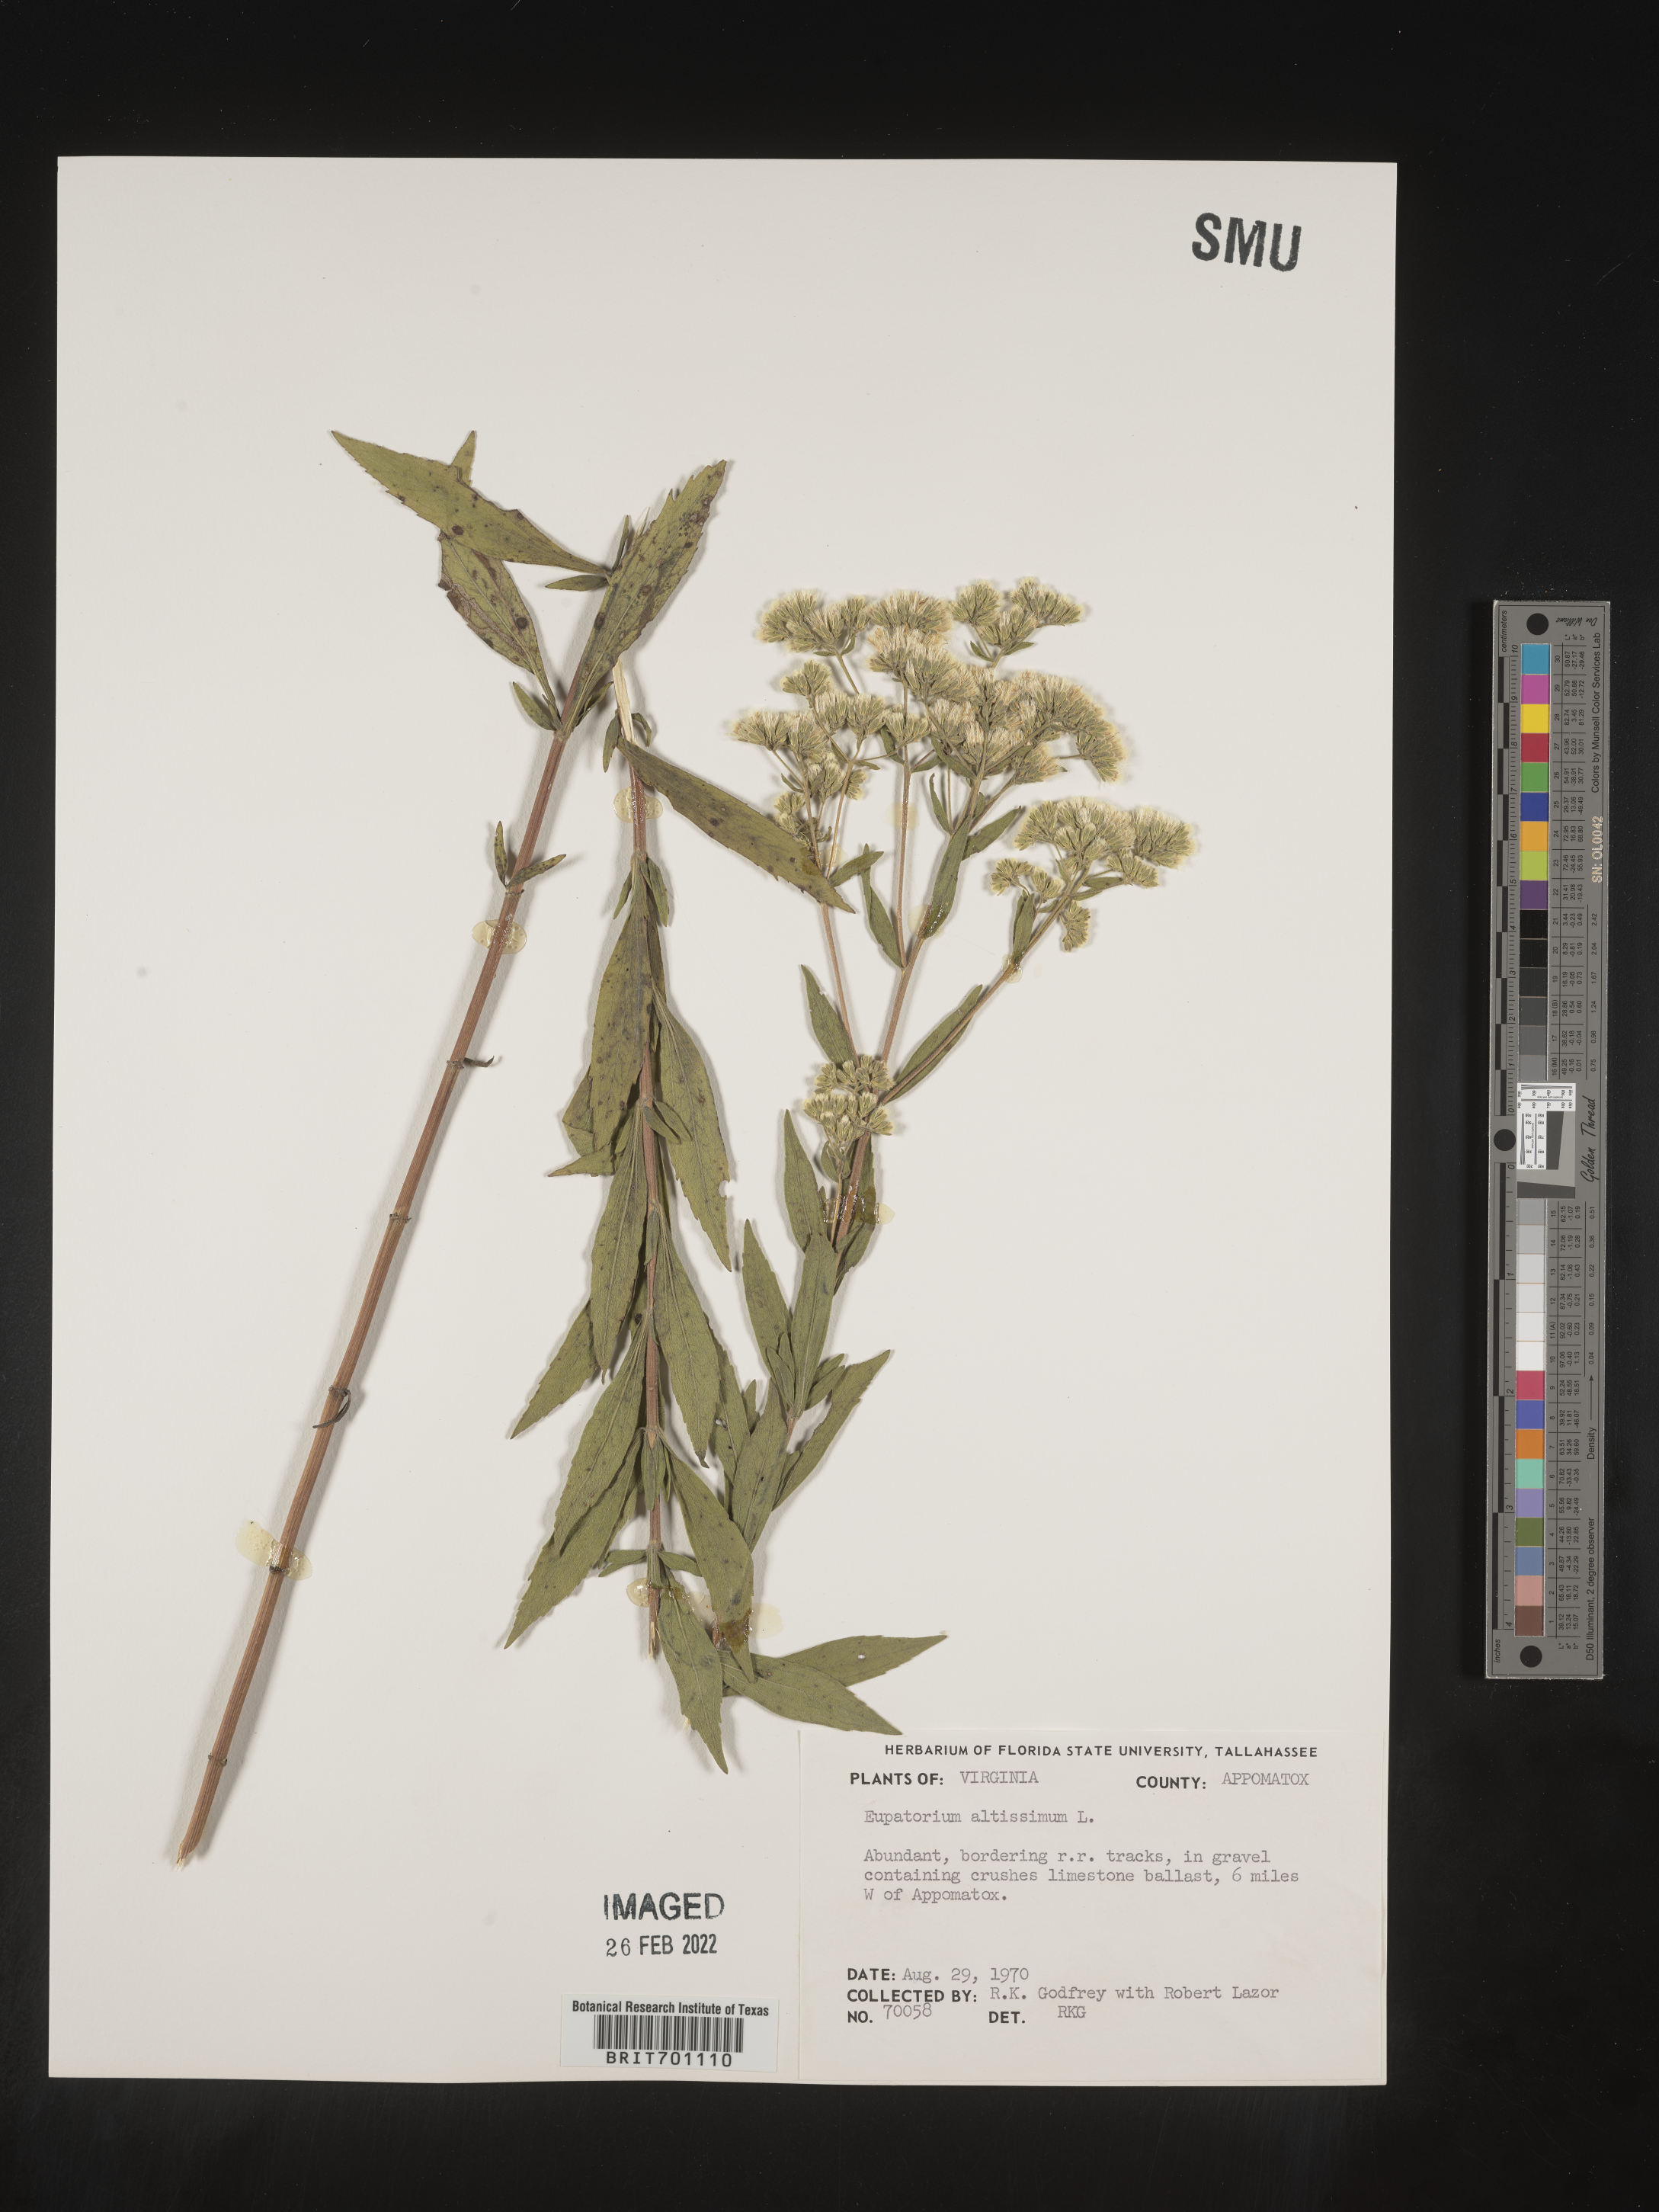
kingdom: Plantae
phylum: Tracheophyta
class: Magnoliopsida
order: Asterales
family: Asteraceae
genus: Eupatorium
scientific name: Eupatorium altissimum
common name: Tall thoroughwort
